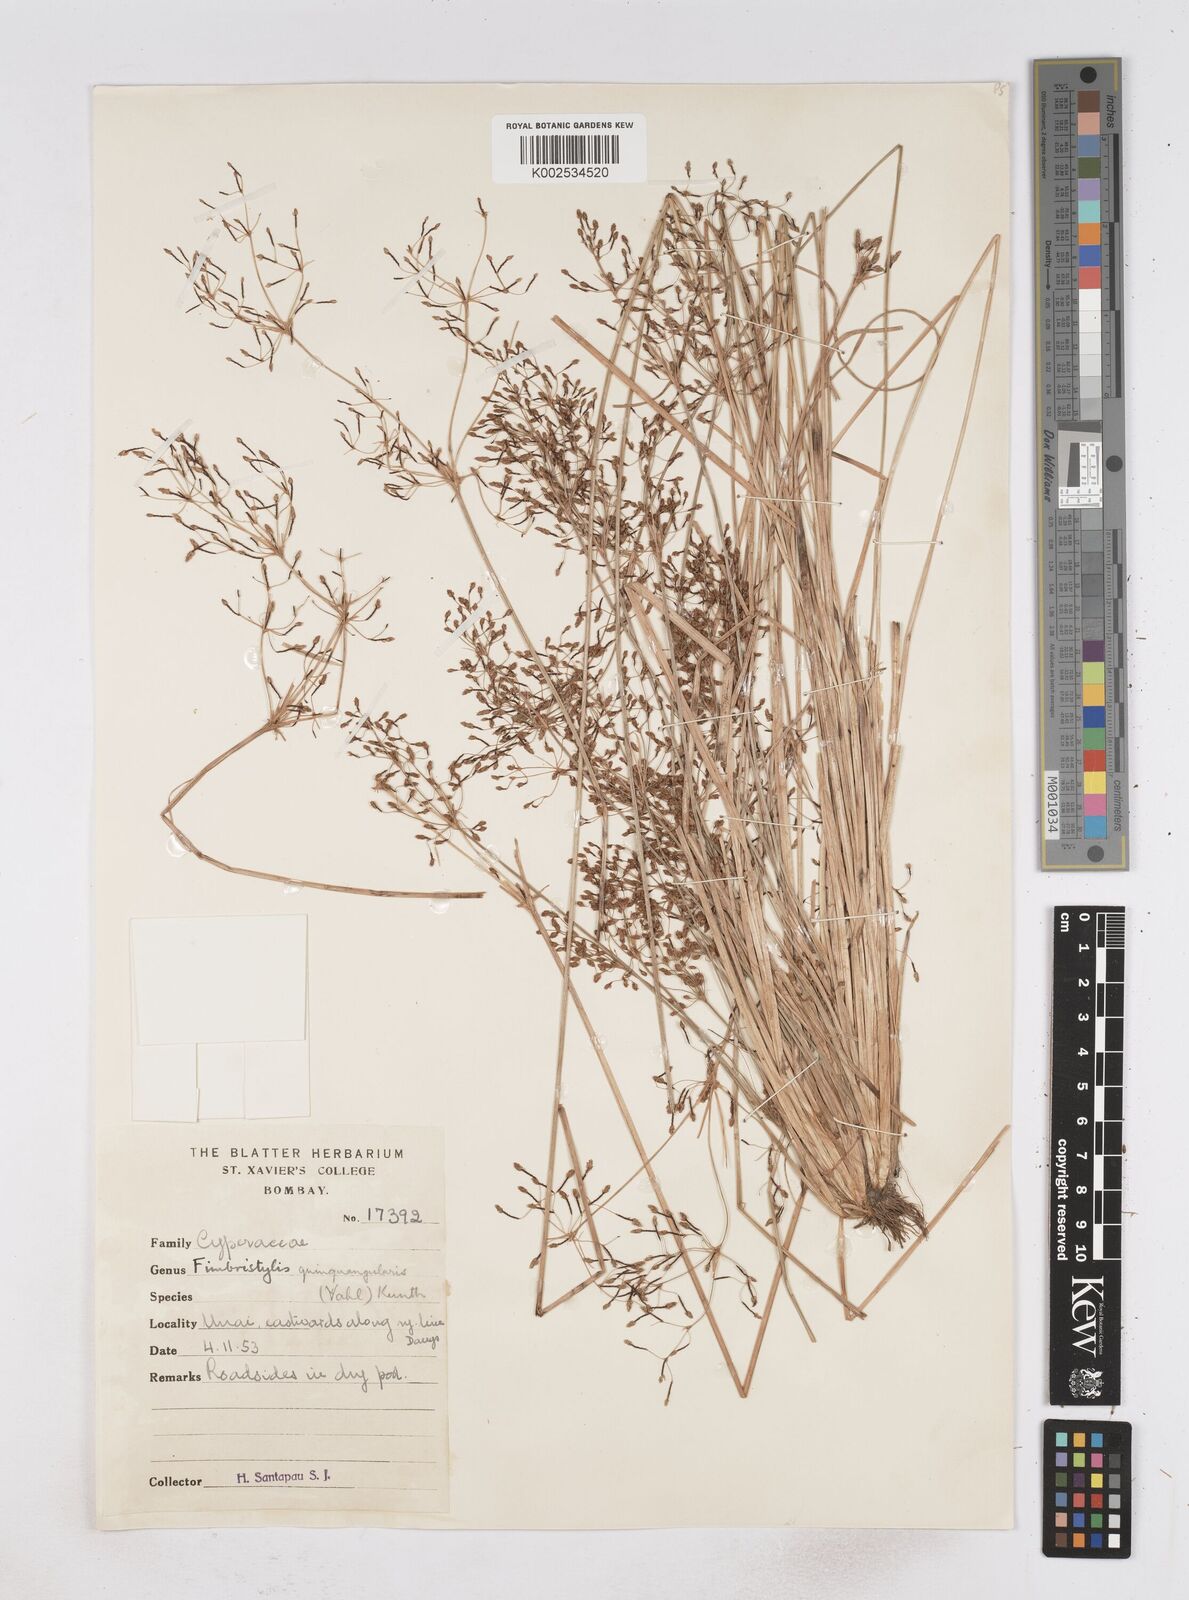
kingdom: Plantae
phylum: Tracheophyta
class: Liliopsida
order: Poales
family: Cyperaceae
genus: Fimbristylis
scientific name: Fimbristylis quinquangularis
